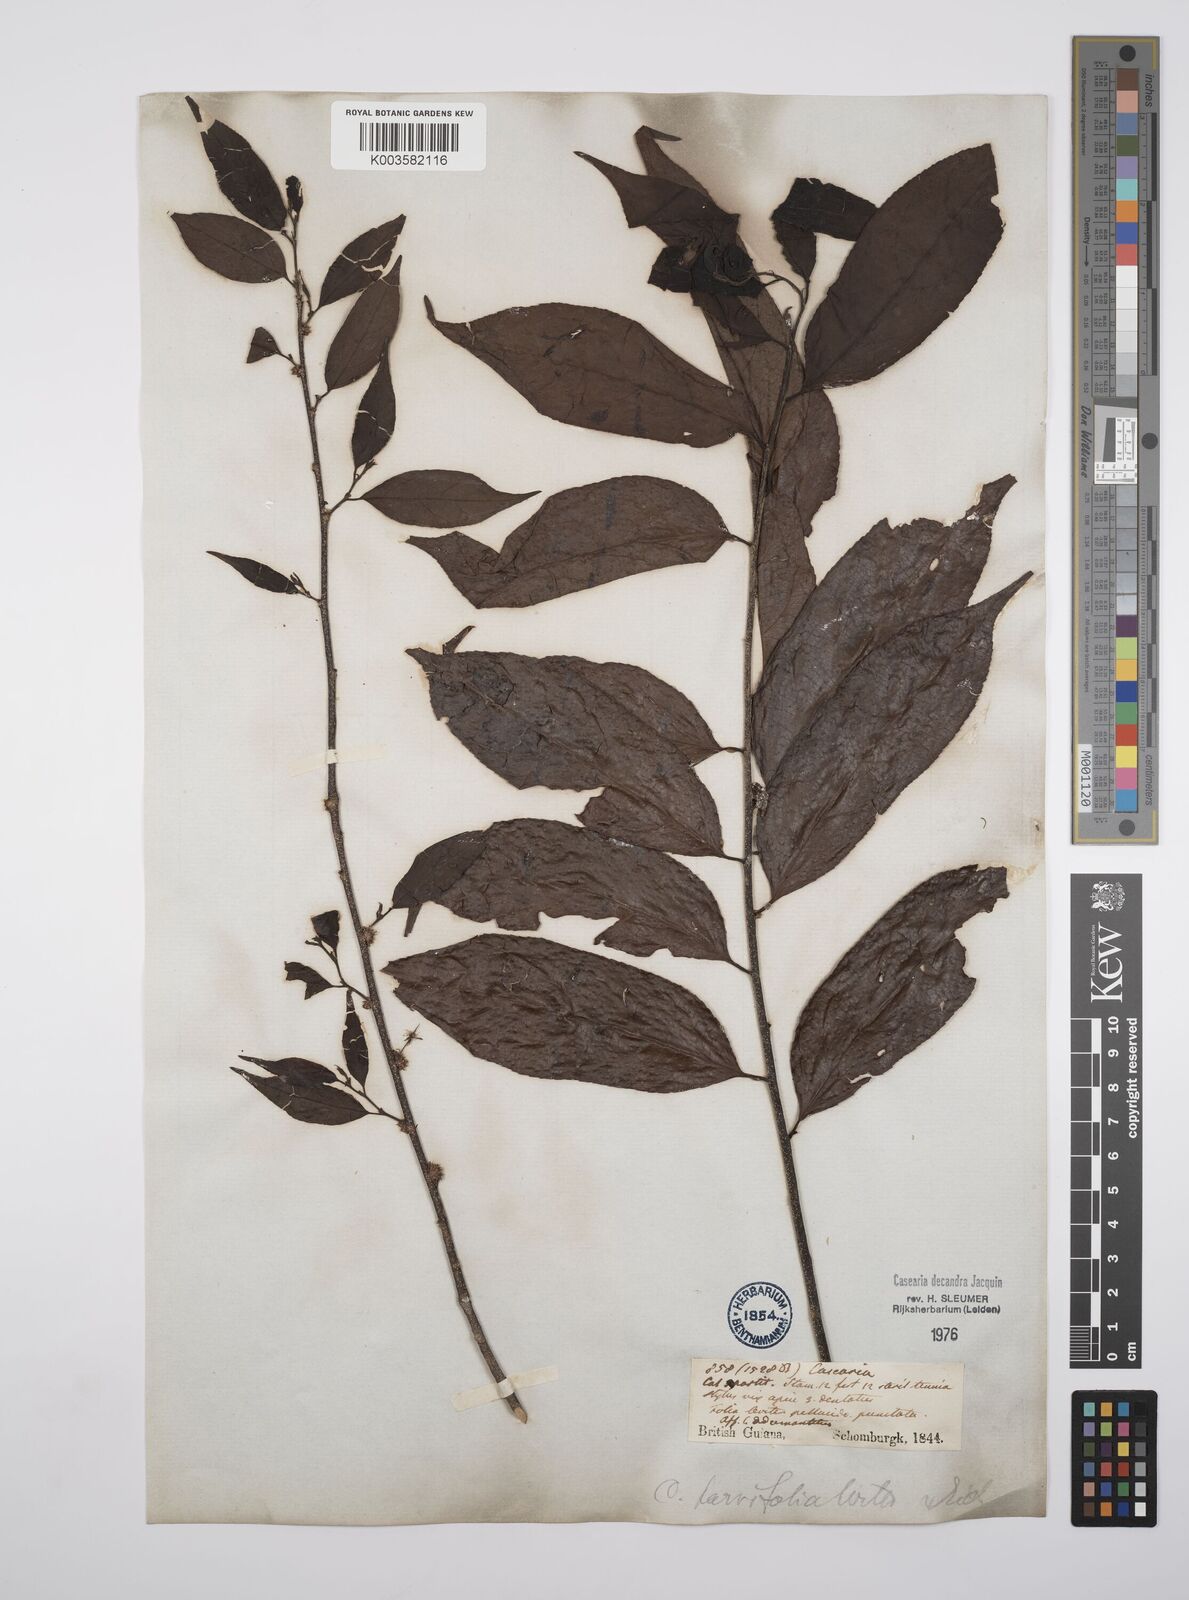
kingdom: Plantae
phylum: Tracheophyta
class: Magnoliopsida
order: Malpighiales
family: Salicaceae
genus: Casearia
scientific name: Casearia decandra
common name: Crack open
